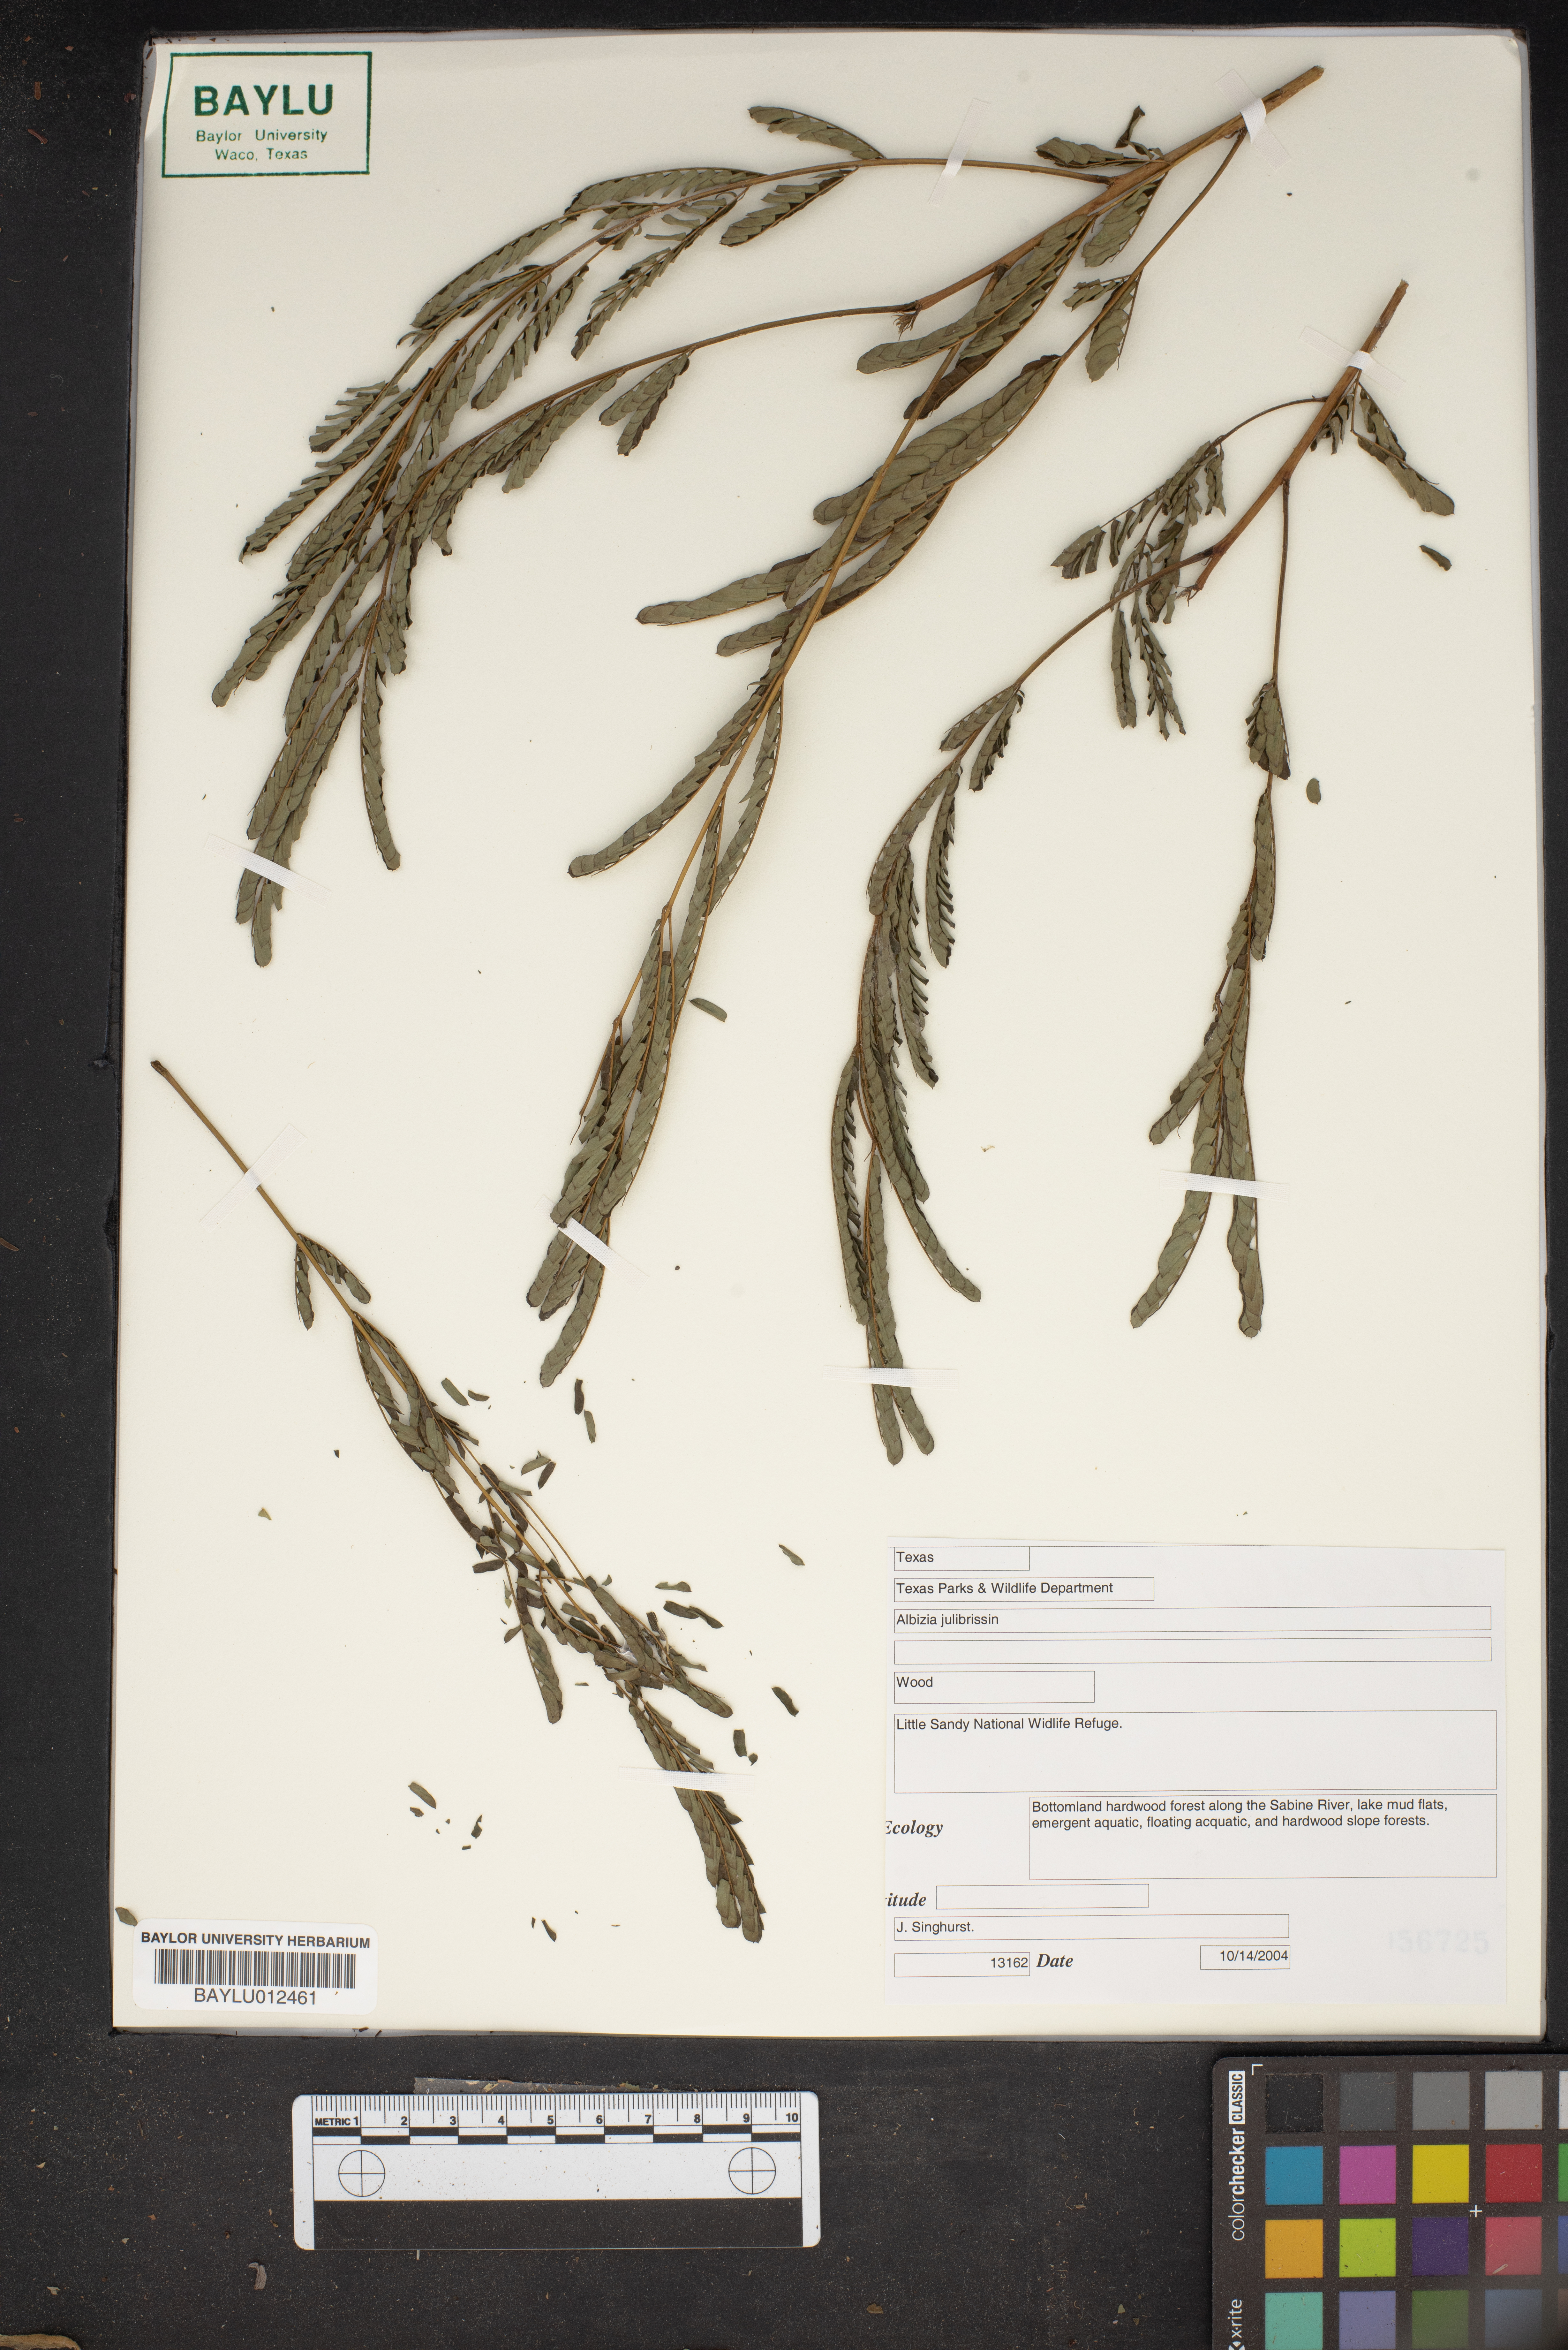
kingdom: Plantae
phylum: Tracheophyta
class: Magnoliopsida
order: Fabales
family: Fabaceae
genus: Albizia
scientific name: Albizia julibrissin
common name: Silktree
